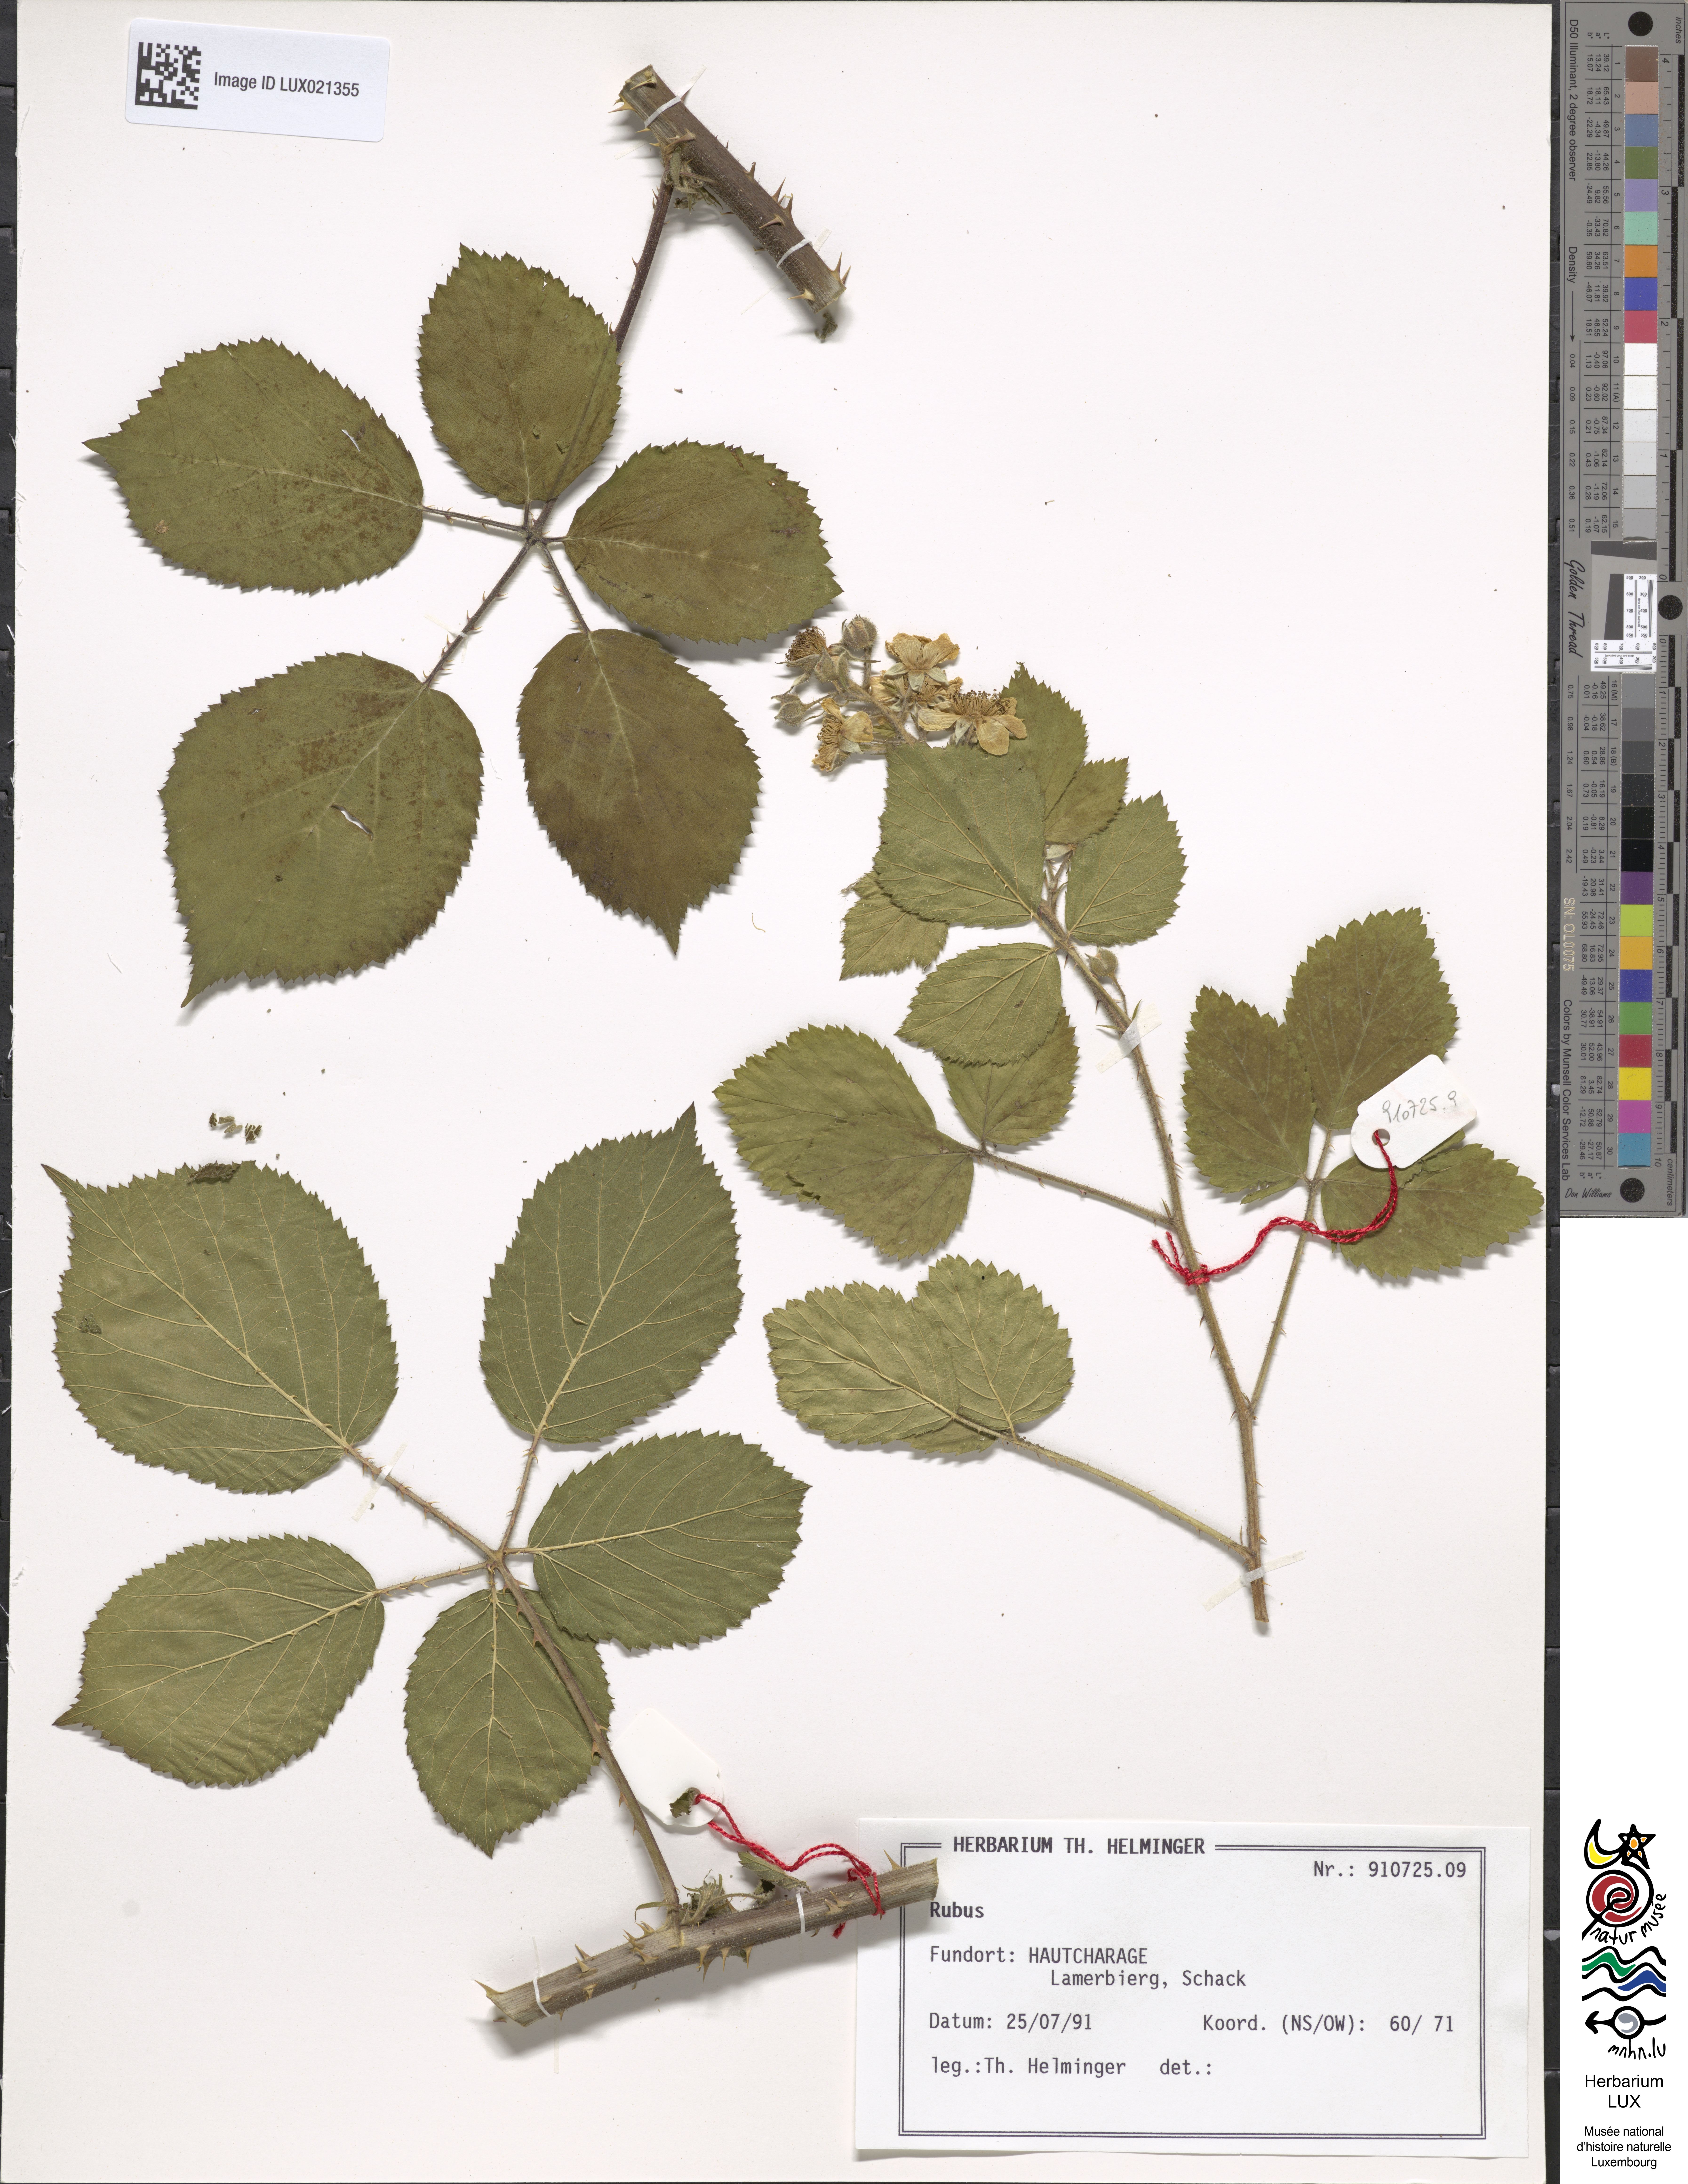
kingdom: Plantae
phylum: Tracheophyta
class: Magnoliopsida
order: Rosales
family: Rosaceae
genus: Rubus
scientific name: Rubus
